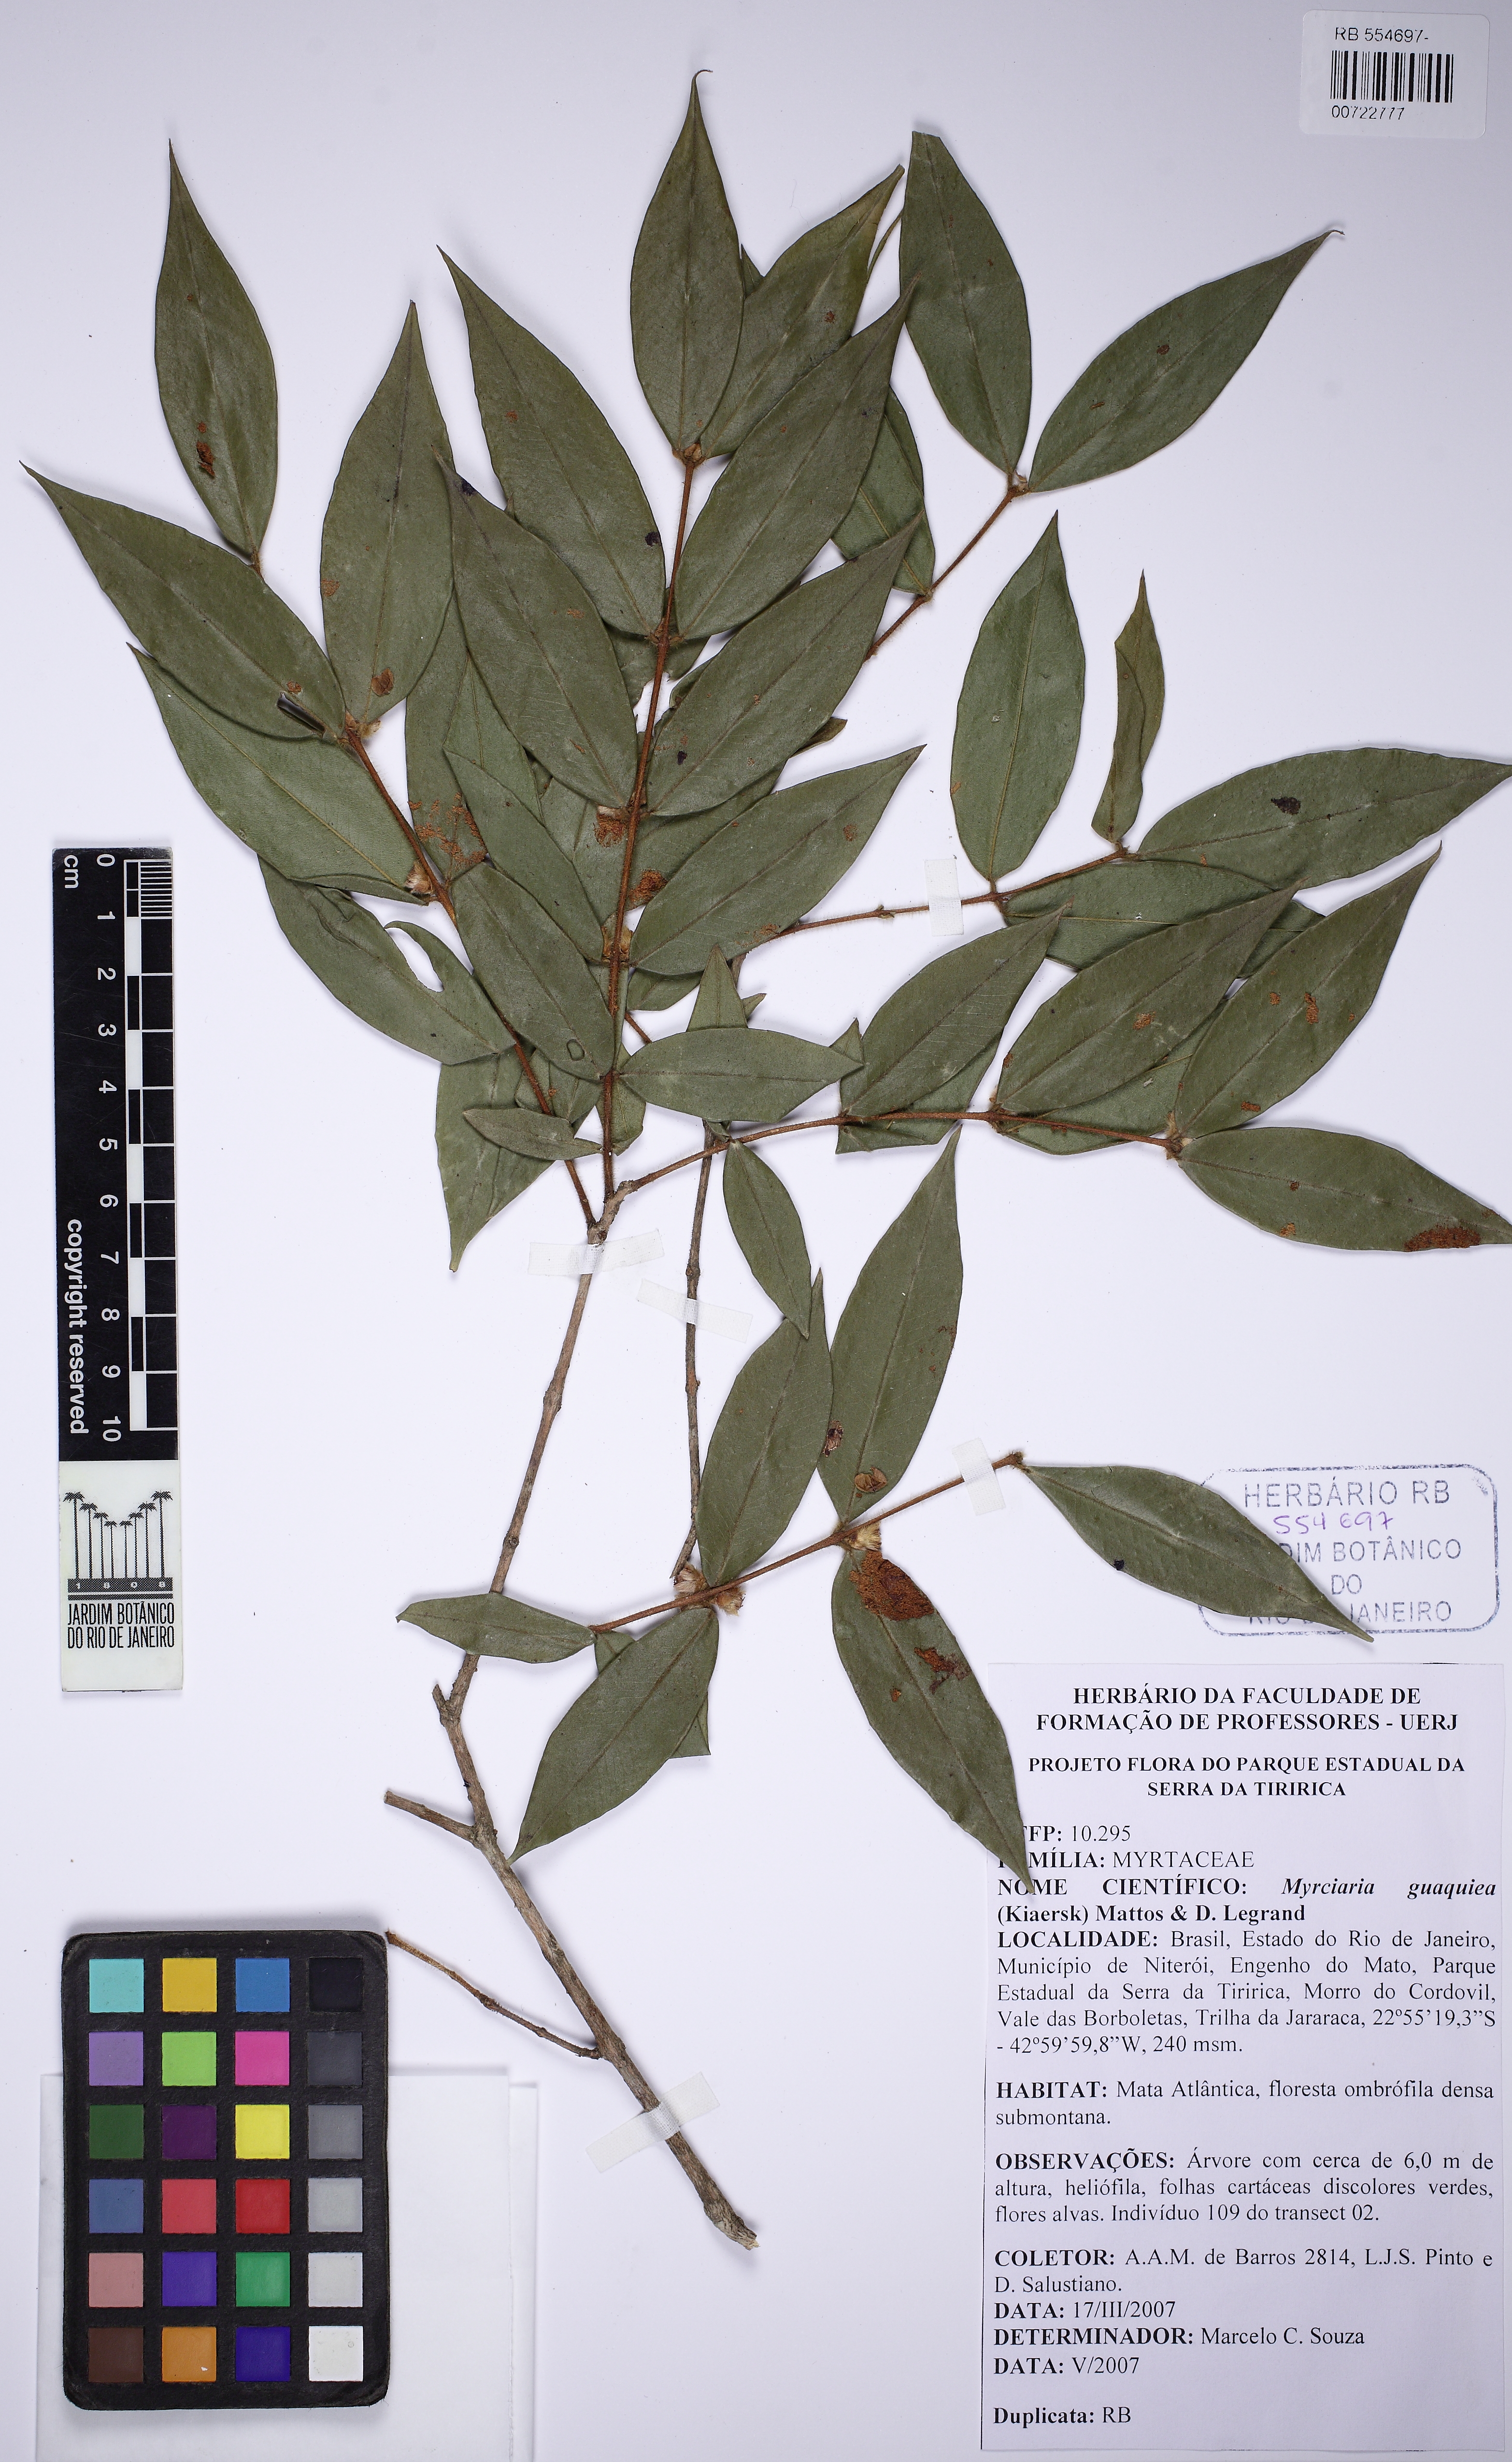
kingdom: Plantae
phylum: Tracheophyta
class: Magnoliopsida
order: Myrtales
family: Myrtaceae
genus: Myrciaria
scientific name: Myrciaria guaquiea
